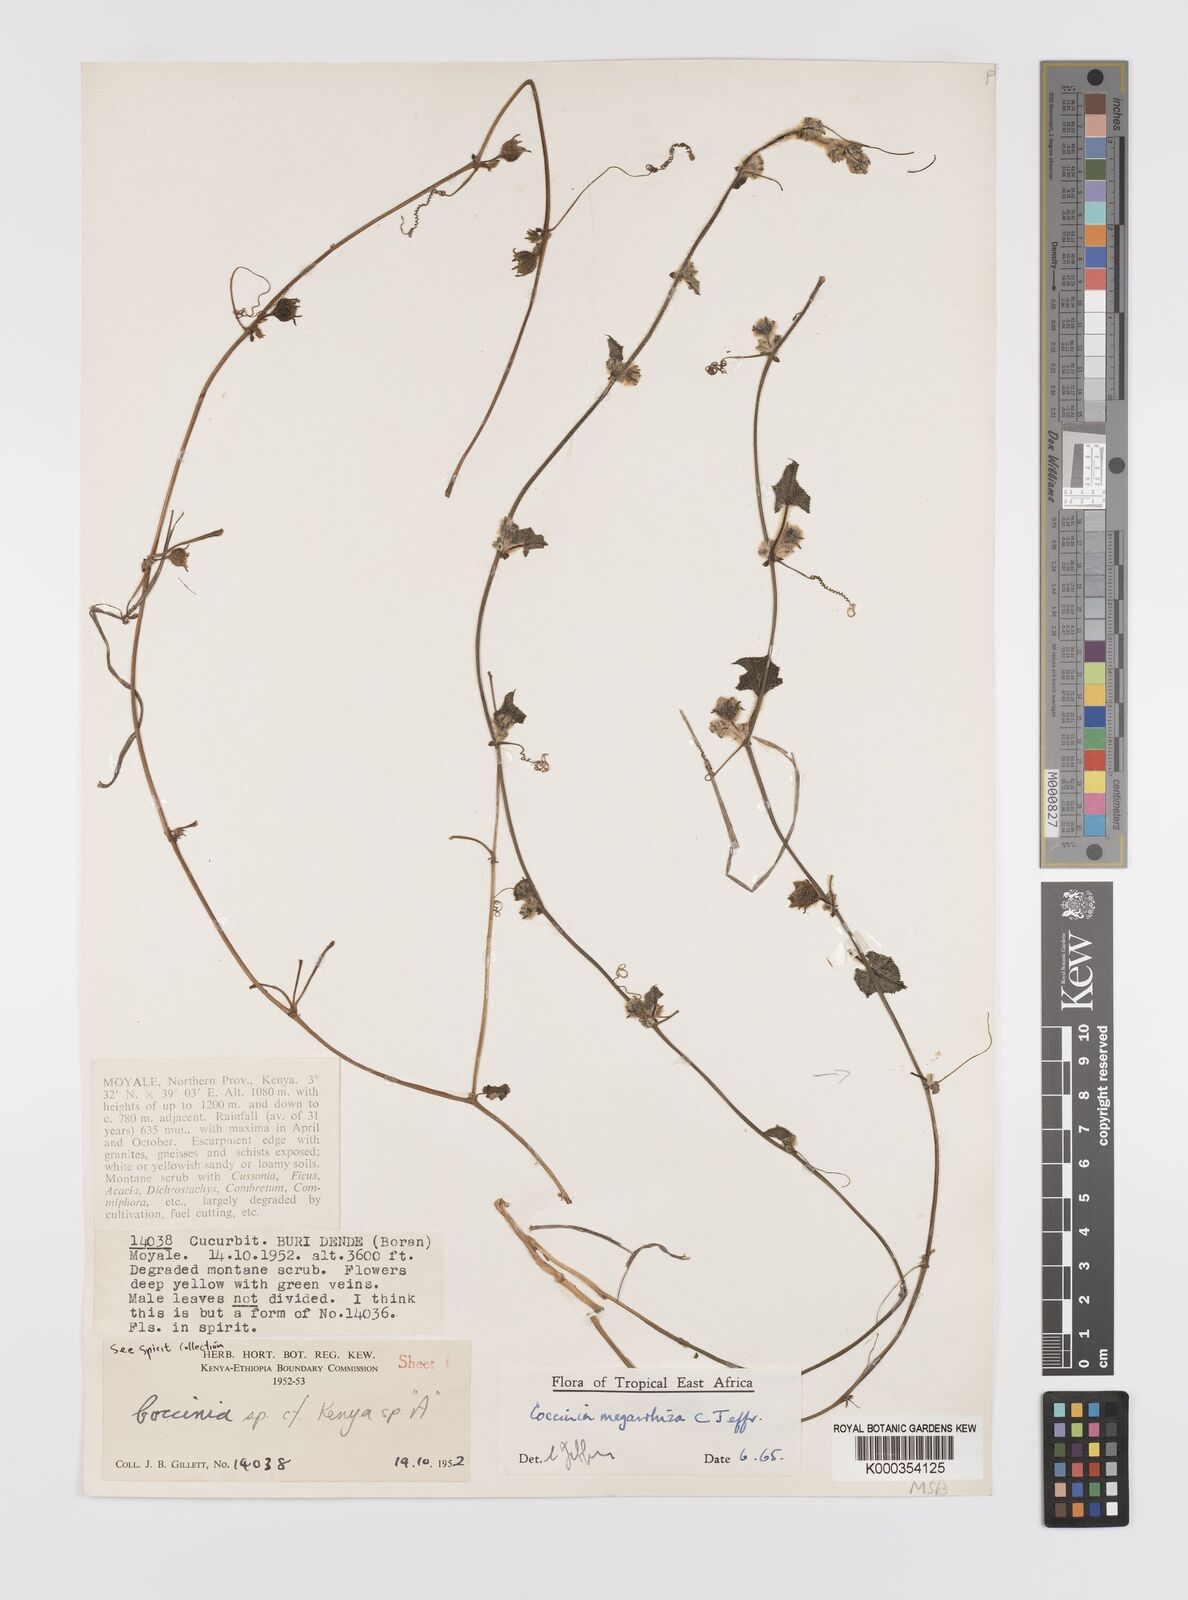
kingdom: Plantae
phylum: Tracheophyta
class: Magnoliopsida
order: Cucurbitales
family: Cucurbitaceae
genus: Coccinia
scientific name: Coccinia megarrhiza
